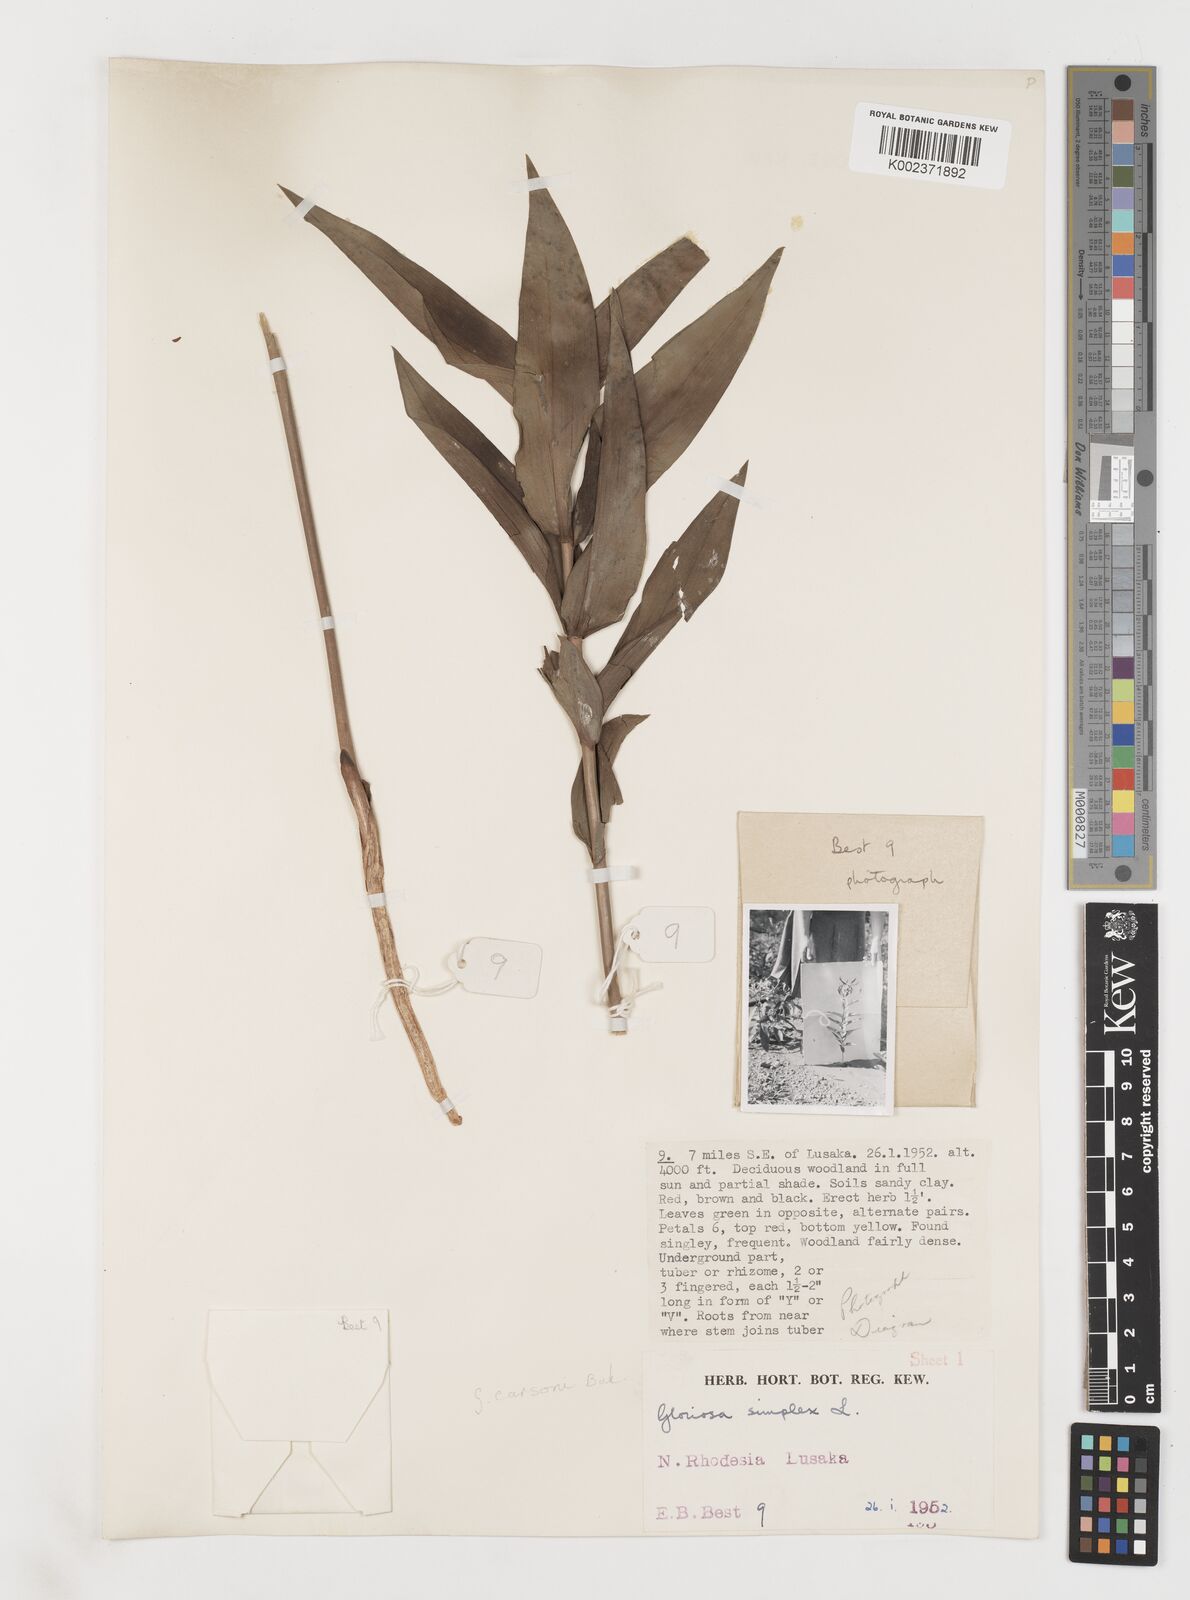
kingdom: Plantae
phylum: Tracheophyta
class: Liliopsida
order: Liliales
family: Colchicaceae
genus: Gloriosa
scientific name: Gloriosa simplex
